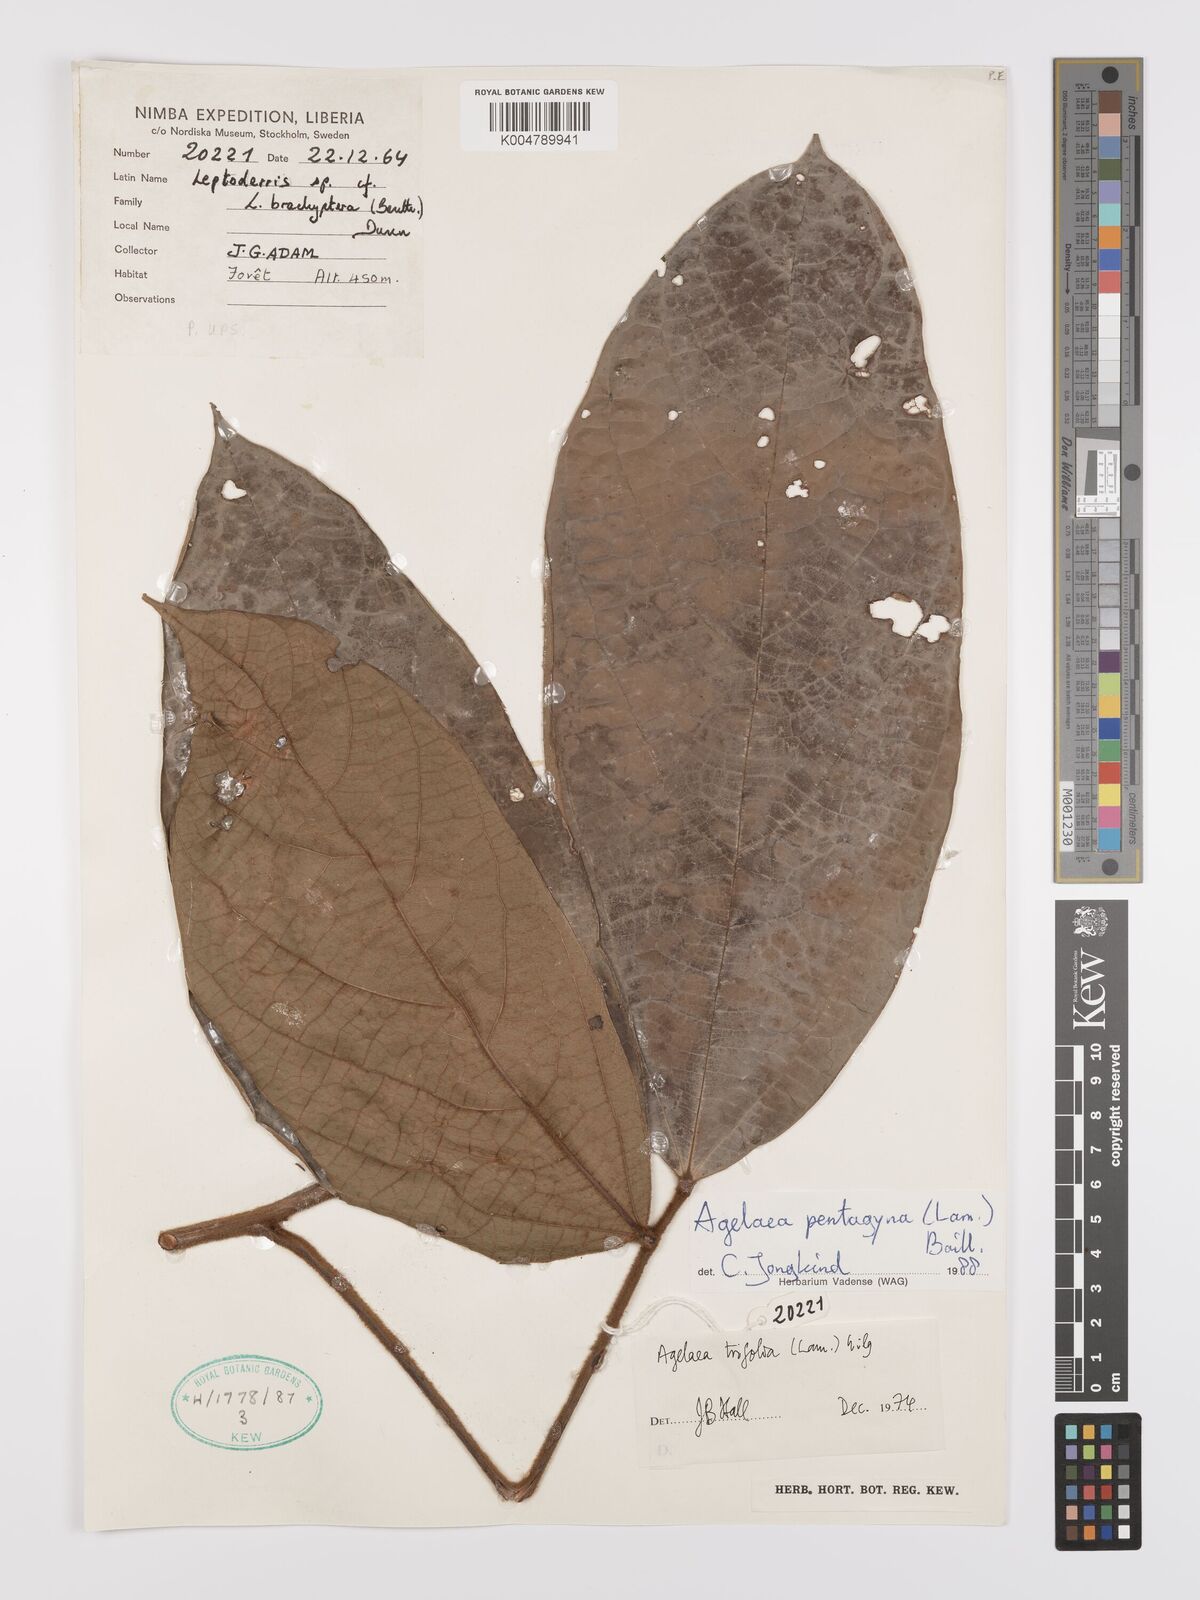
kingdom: Plantae
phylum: Tracheophyta
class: Magnoliopsida
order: Oxalidales
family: Connaraceae
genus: Agelaea
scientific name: Agelaea pentagyna
